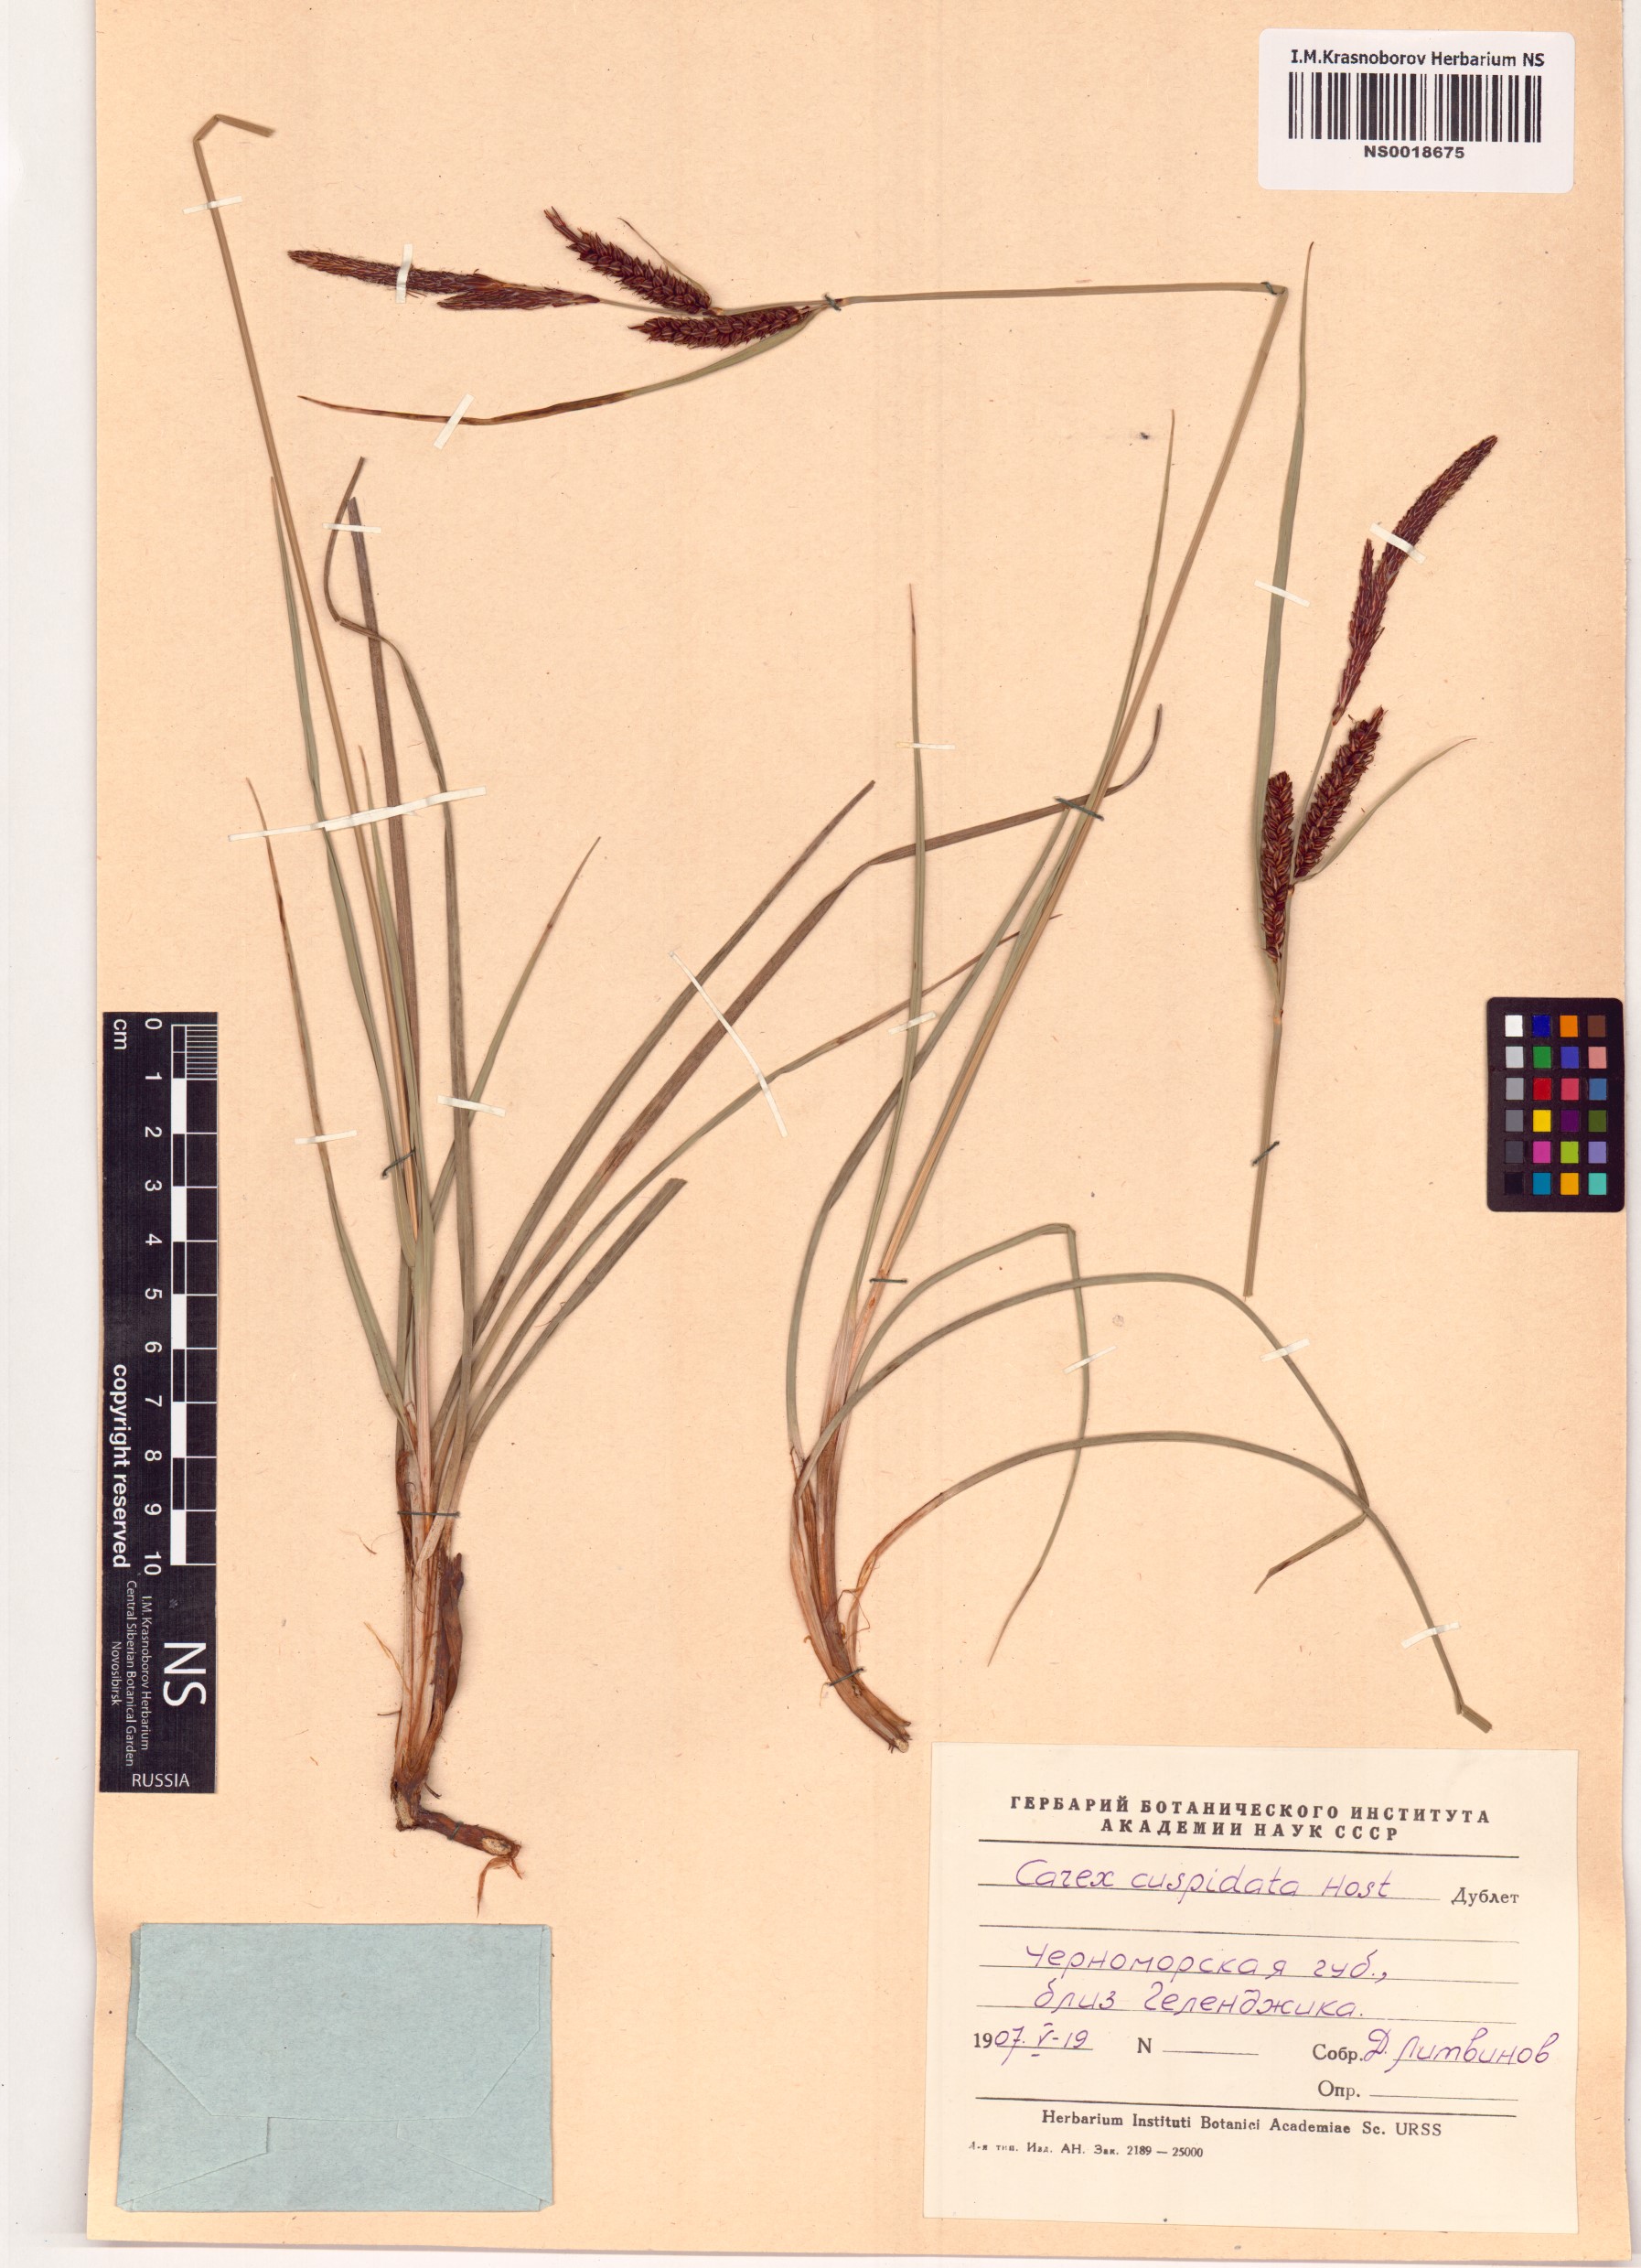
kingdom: Plantae
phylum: Tracheophyta
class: Liliopsida
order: Poales
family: Cyperaceae
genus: Carex
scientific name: Carex flacca
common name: Glaucous sedge
